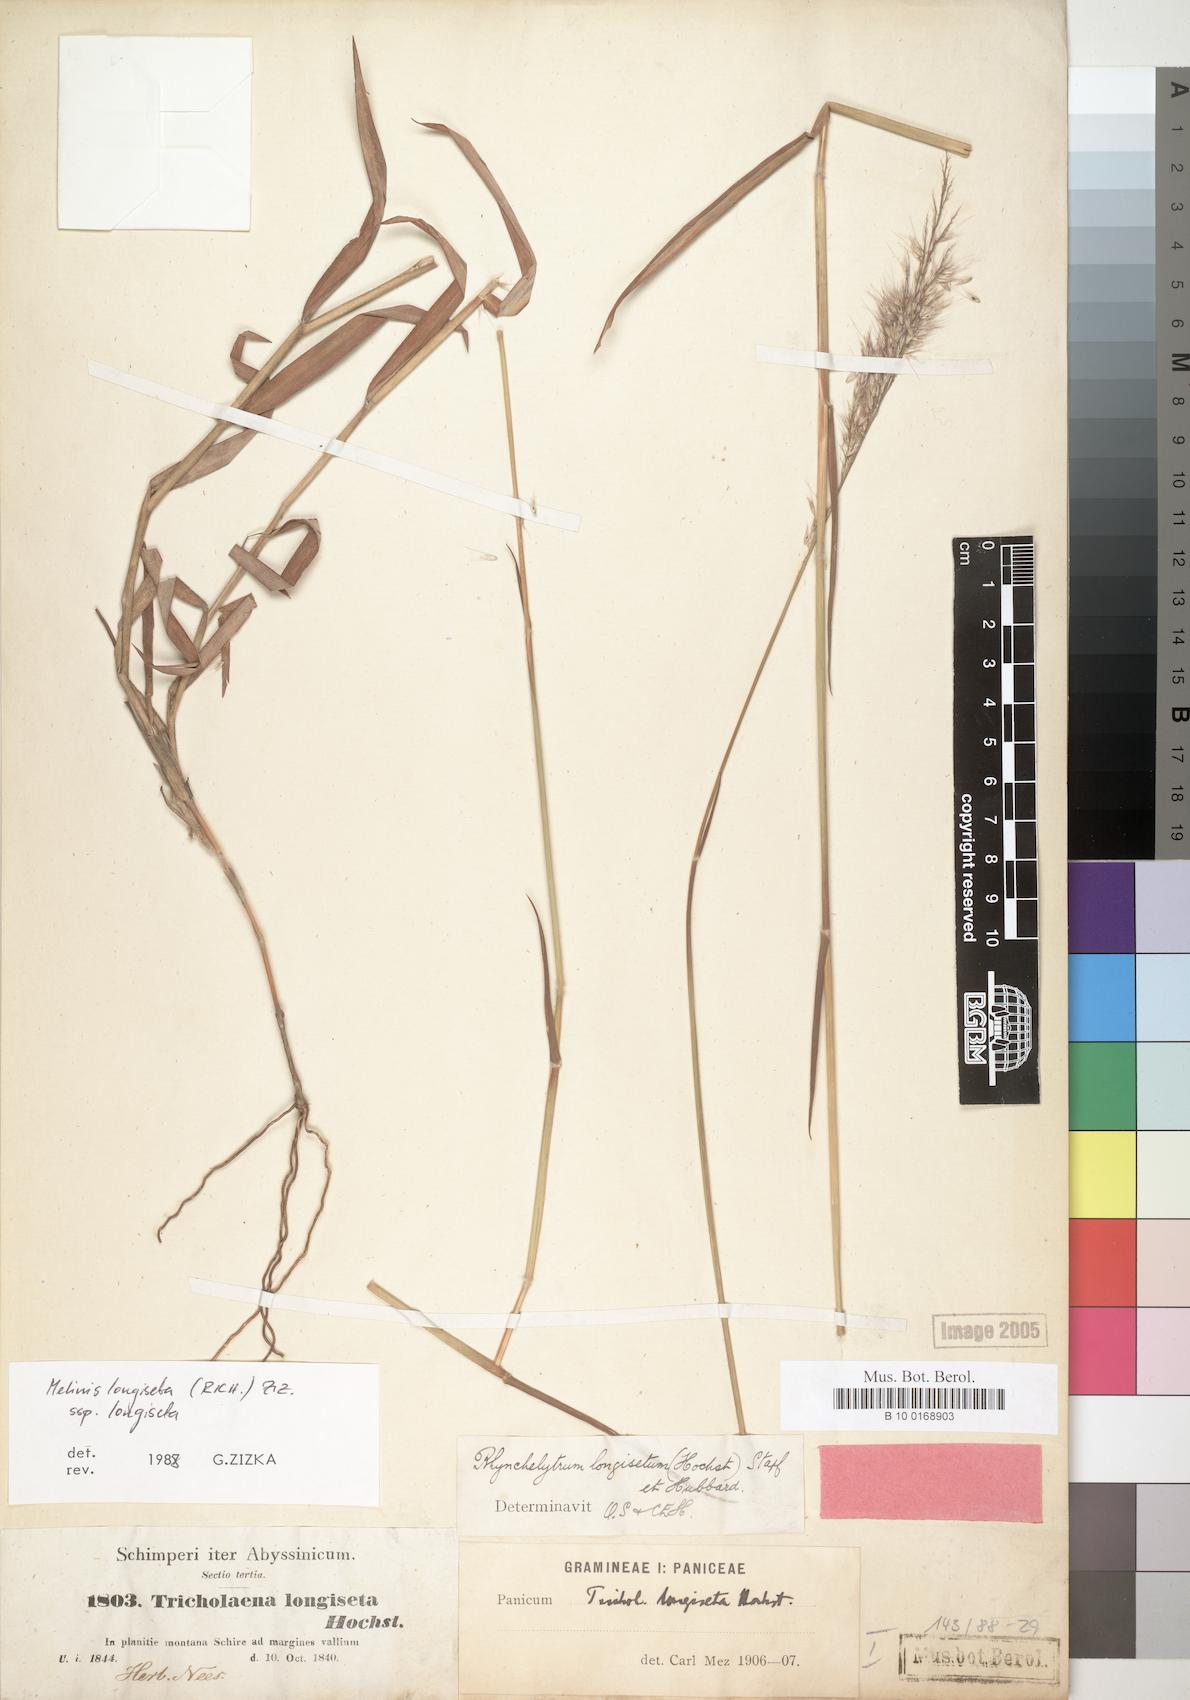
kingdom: Plantae
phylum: Tracheophyta
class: Liliopsida
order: Poales
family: Poaceae
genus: Melinis
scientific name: Melinis longiseta
